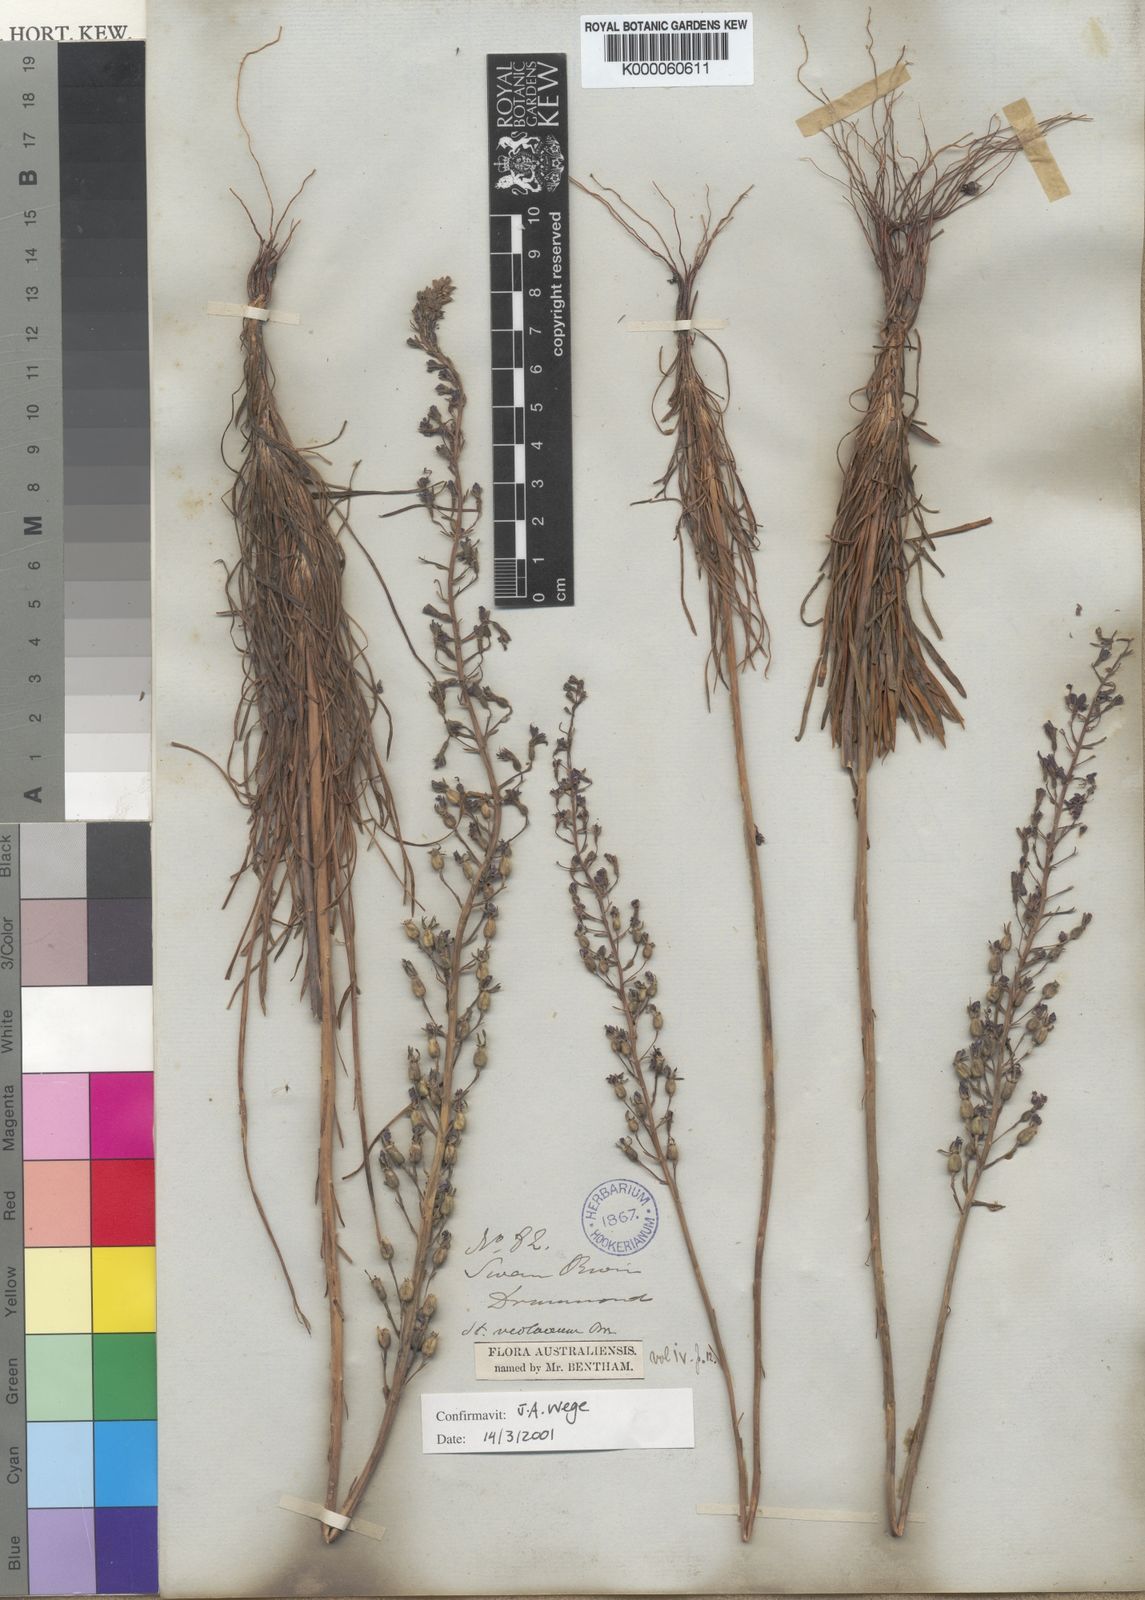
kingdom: Plantae
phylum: Tracheophyta
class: Magnoliopsida
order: Asterales
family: Stylidiaceae
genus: Stylidium
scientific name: Stylidium violaceum
